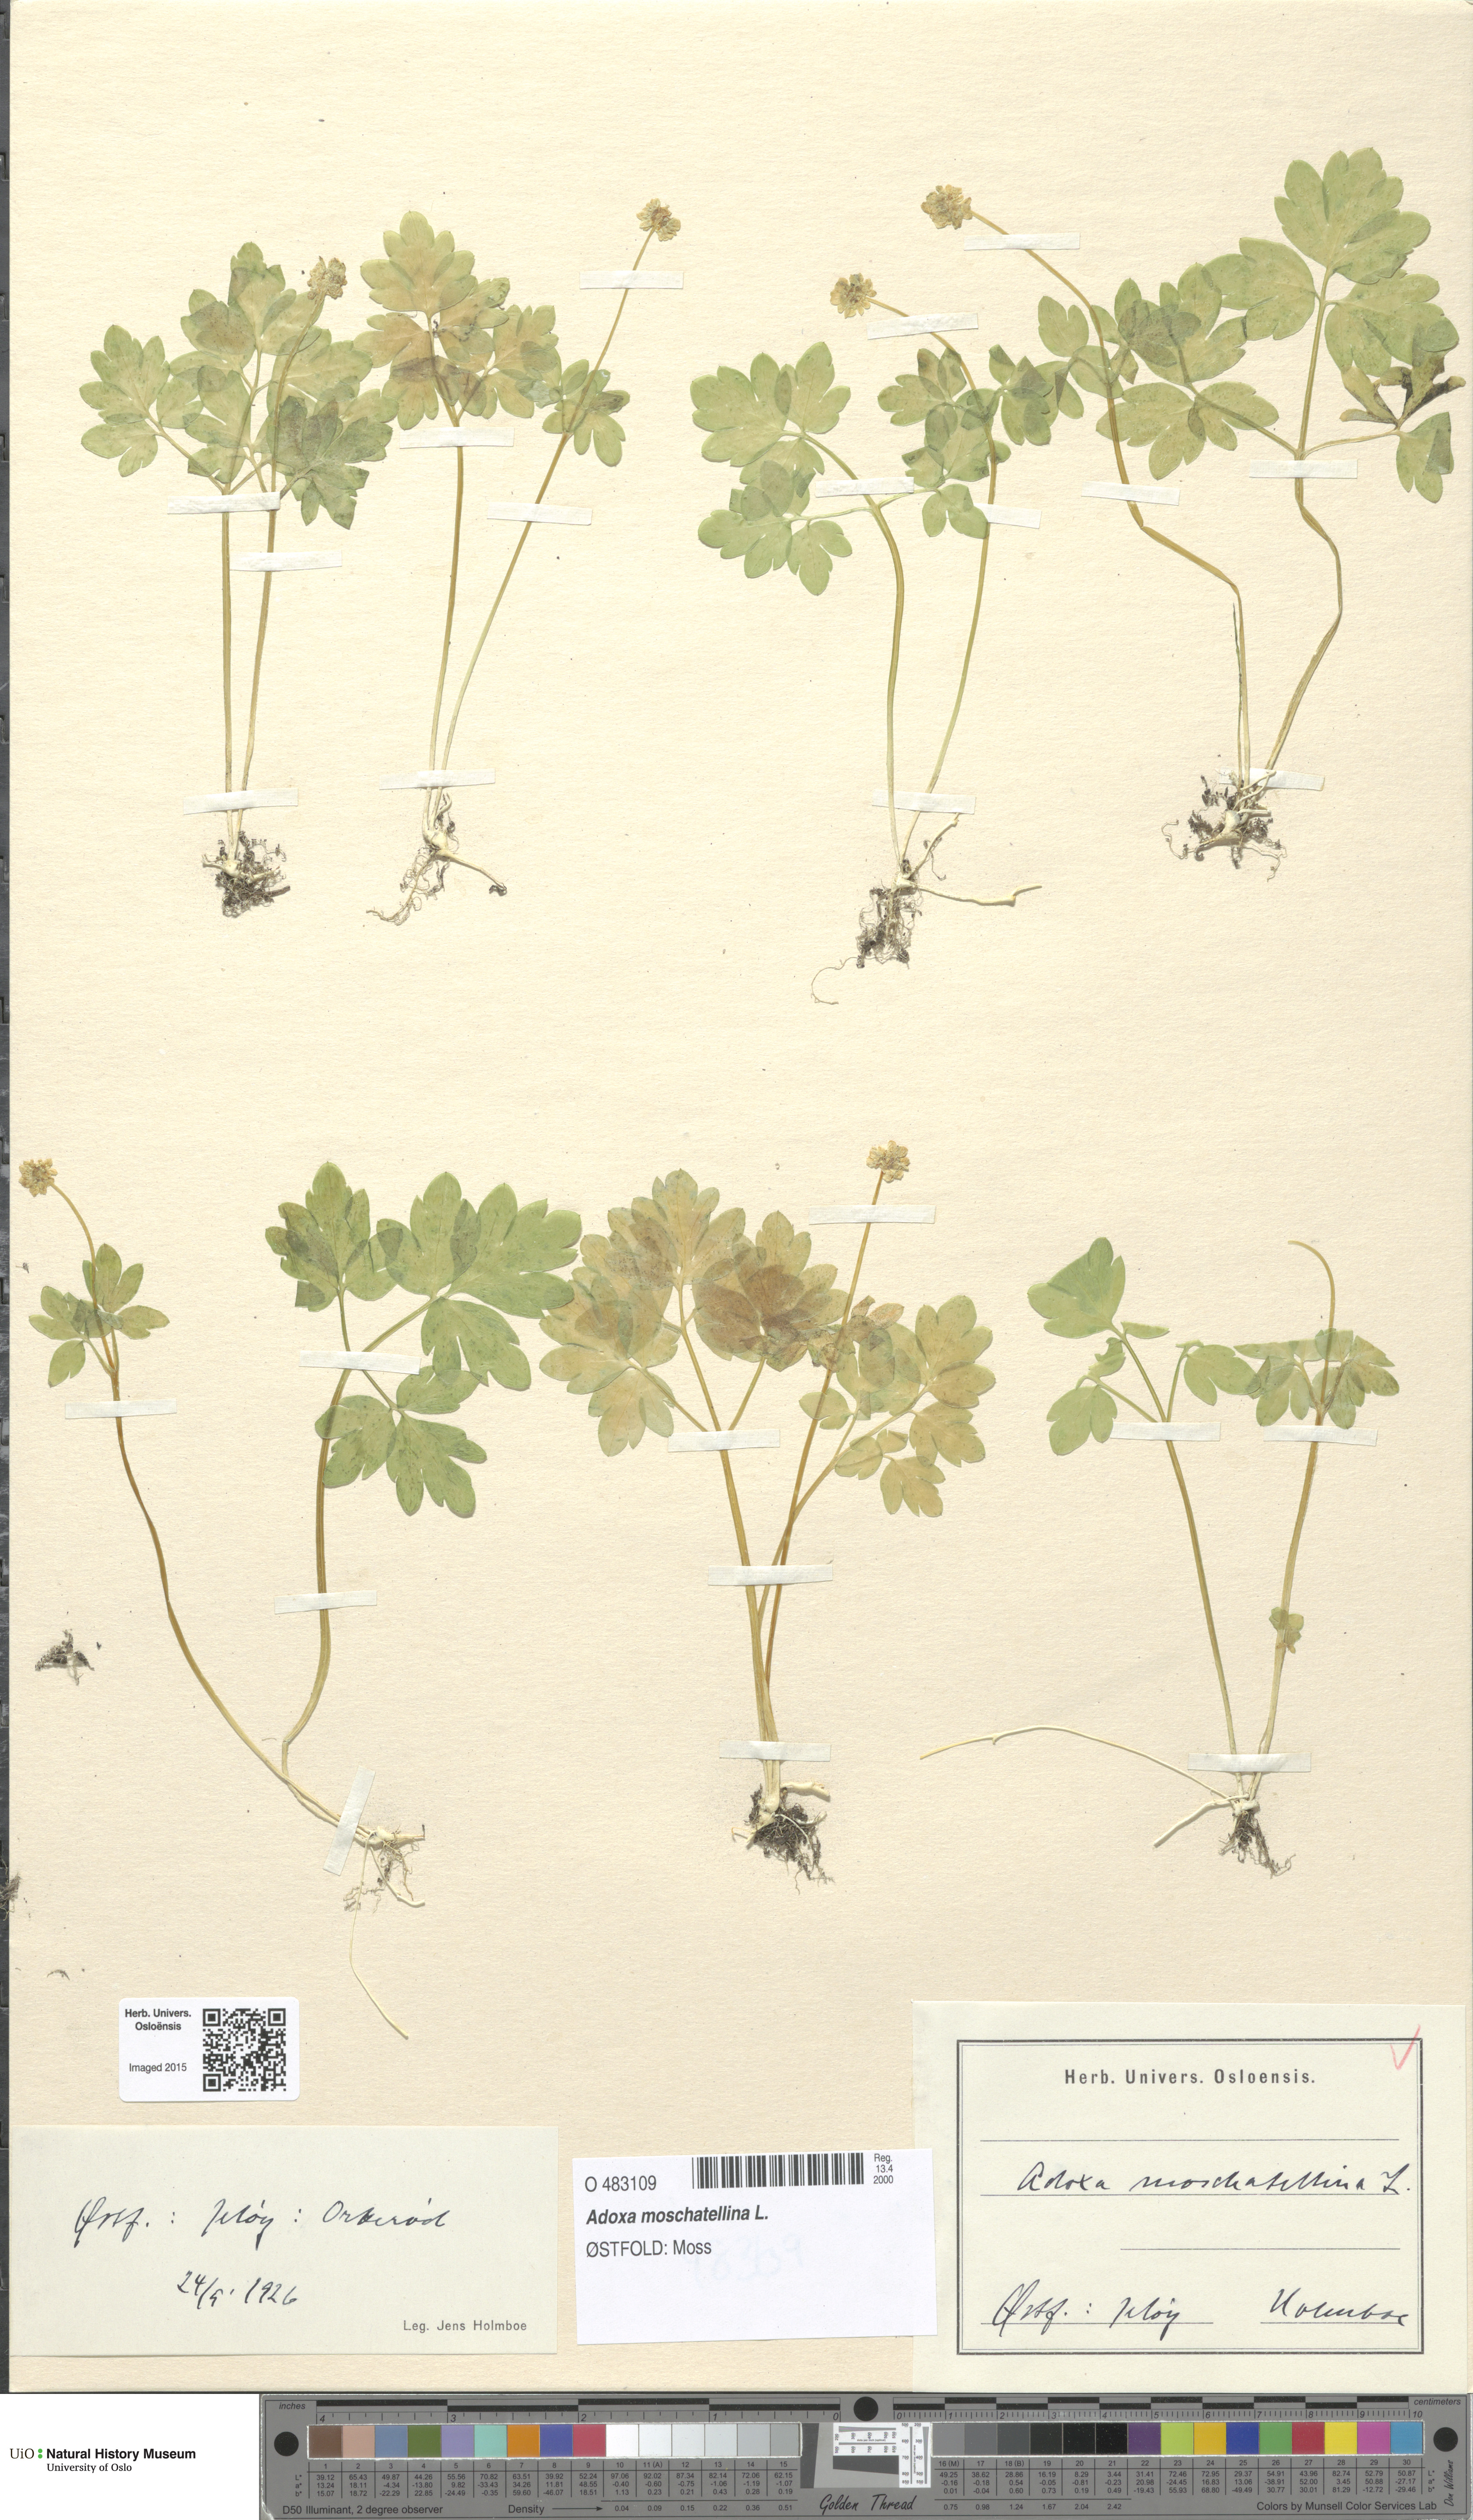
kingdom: Plantae
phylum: Tracheophyta
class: Magnoliopsida
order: Dipsacales
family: Viburnaceae
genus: Adoxa
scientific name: Adoxa moschatellina
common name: Moschatel
